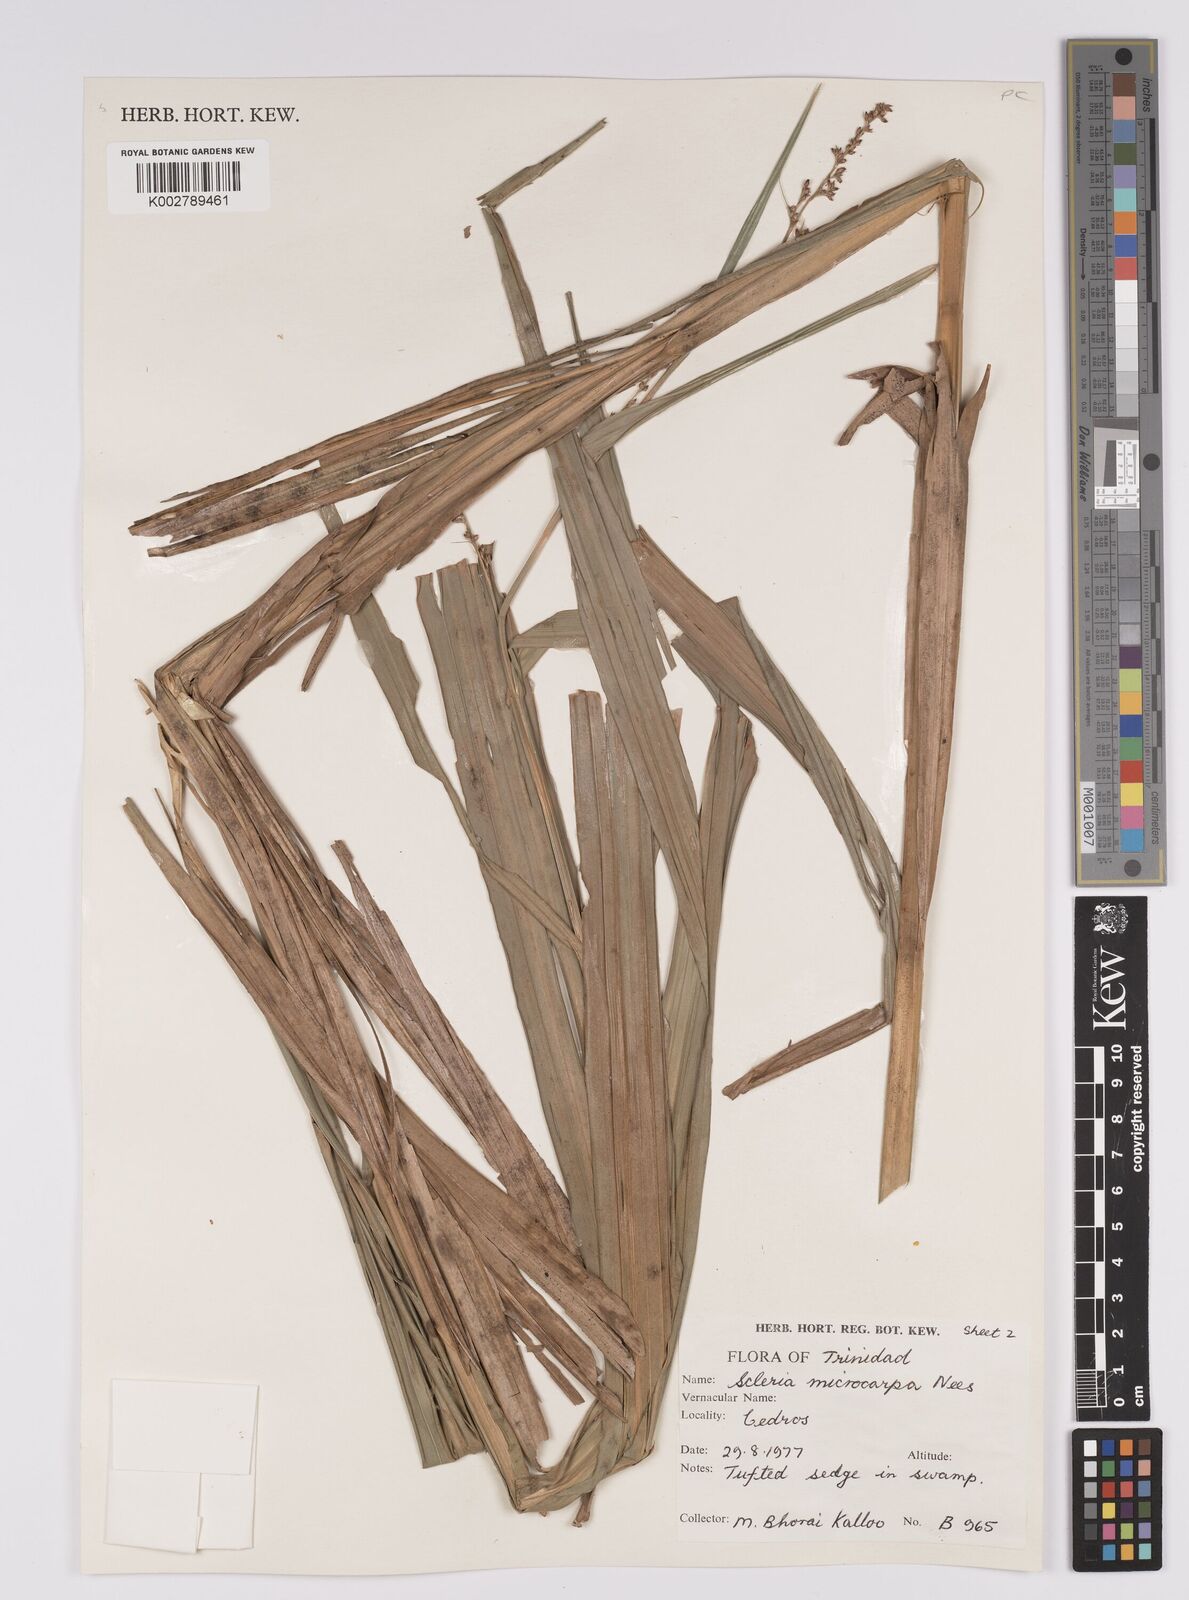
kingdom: Plantae
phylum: Tracheophyta
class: Liliopsida
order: Poales
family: Cyperaceae
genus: Scleria
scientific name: Scleria microcarpa
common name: Tropical nutrush
